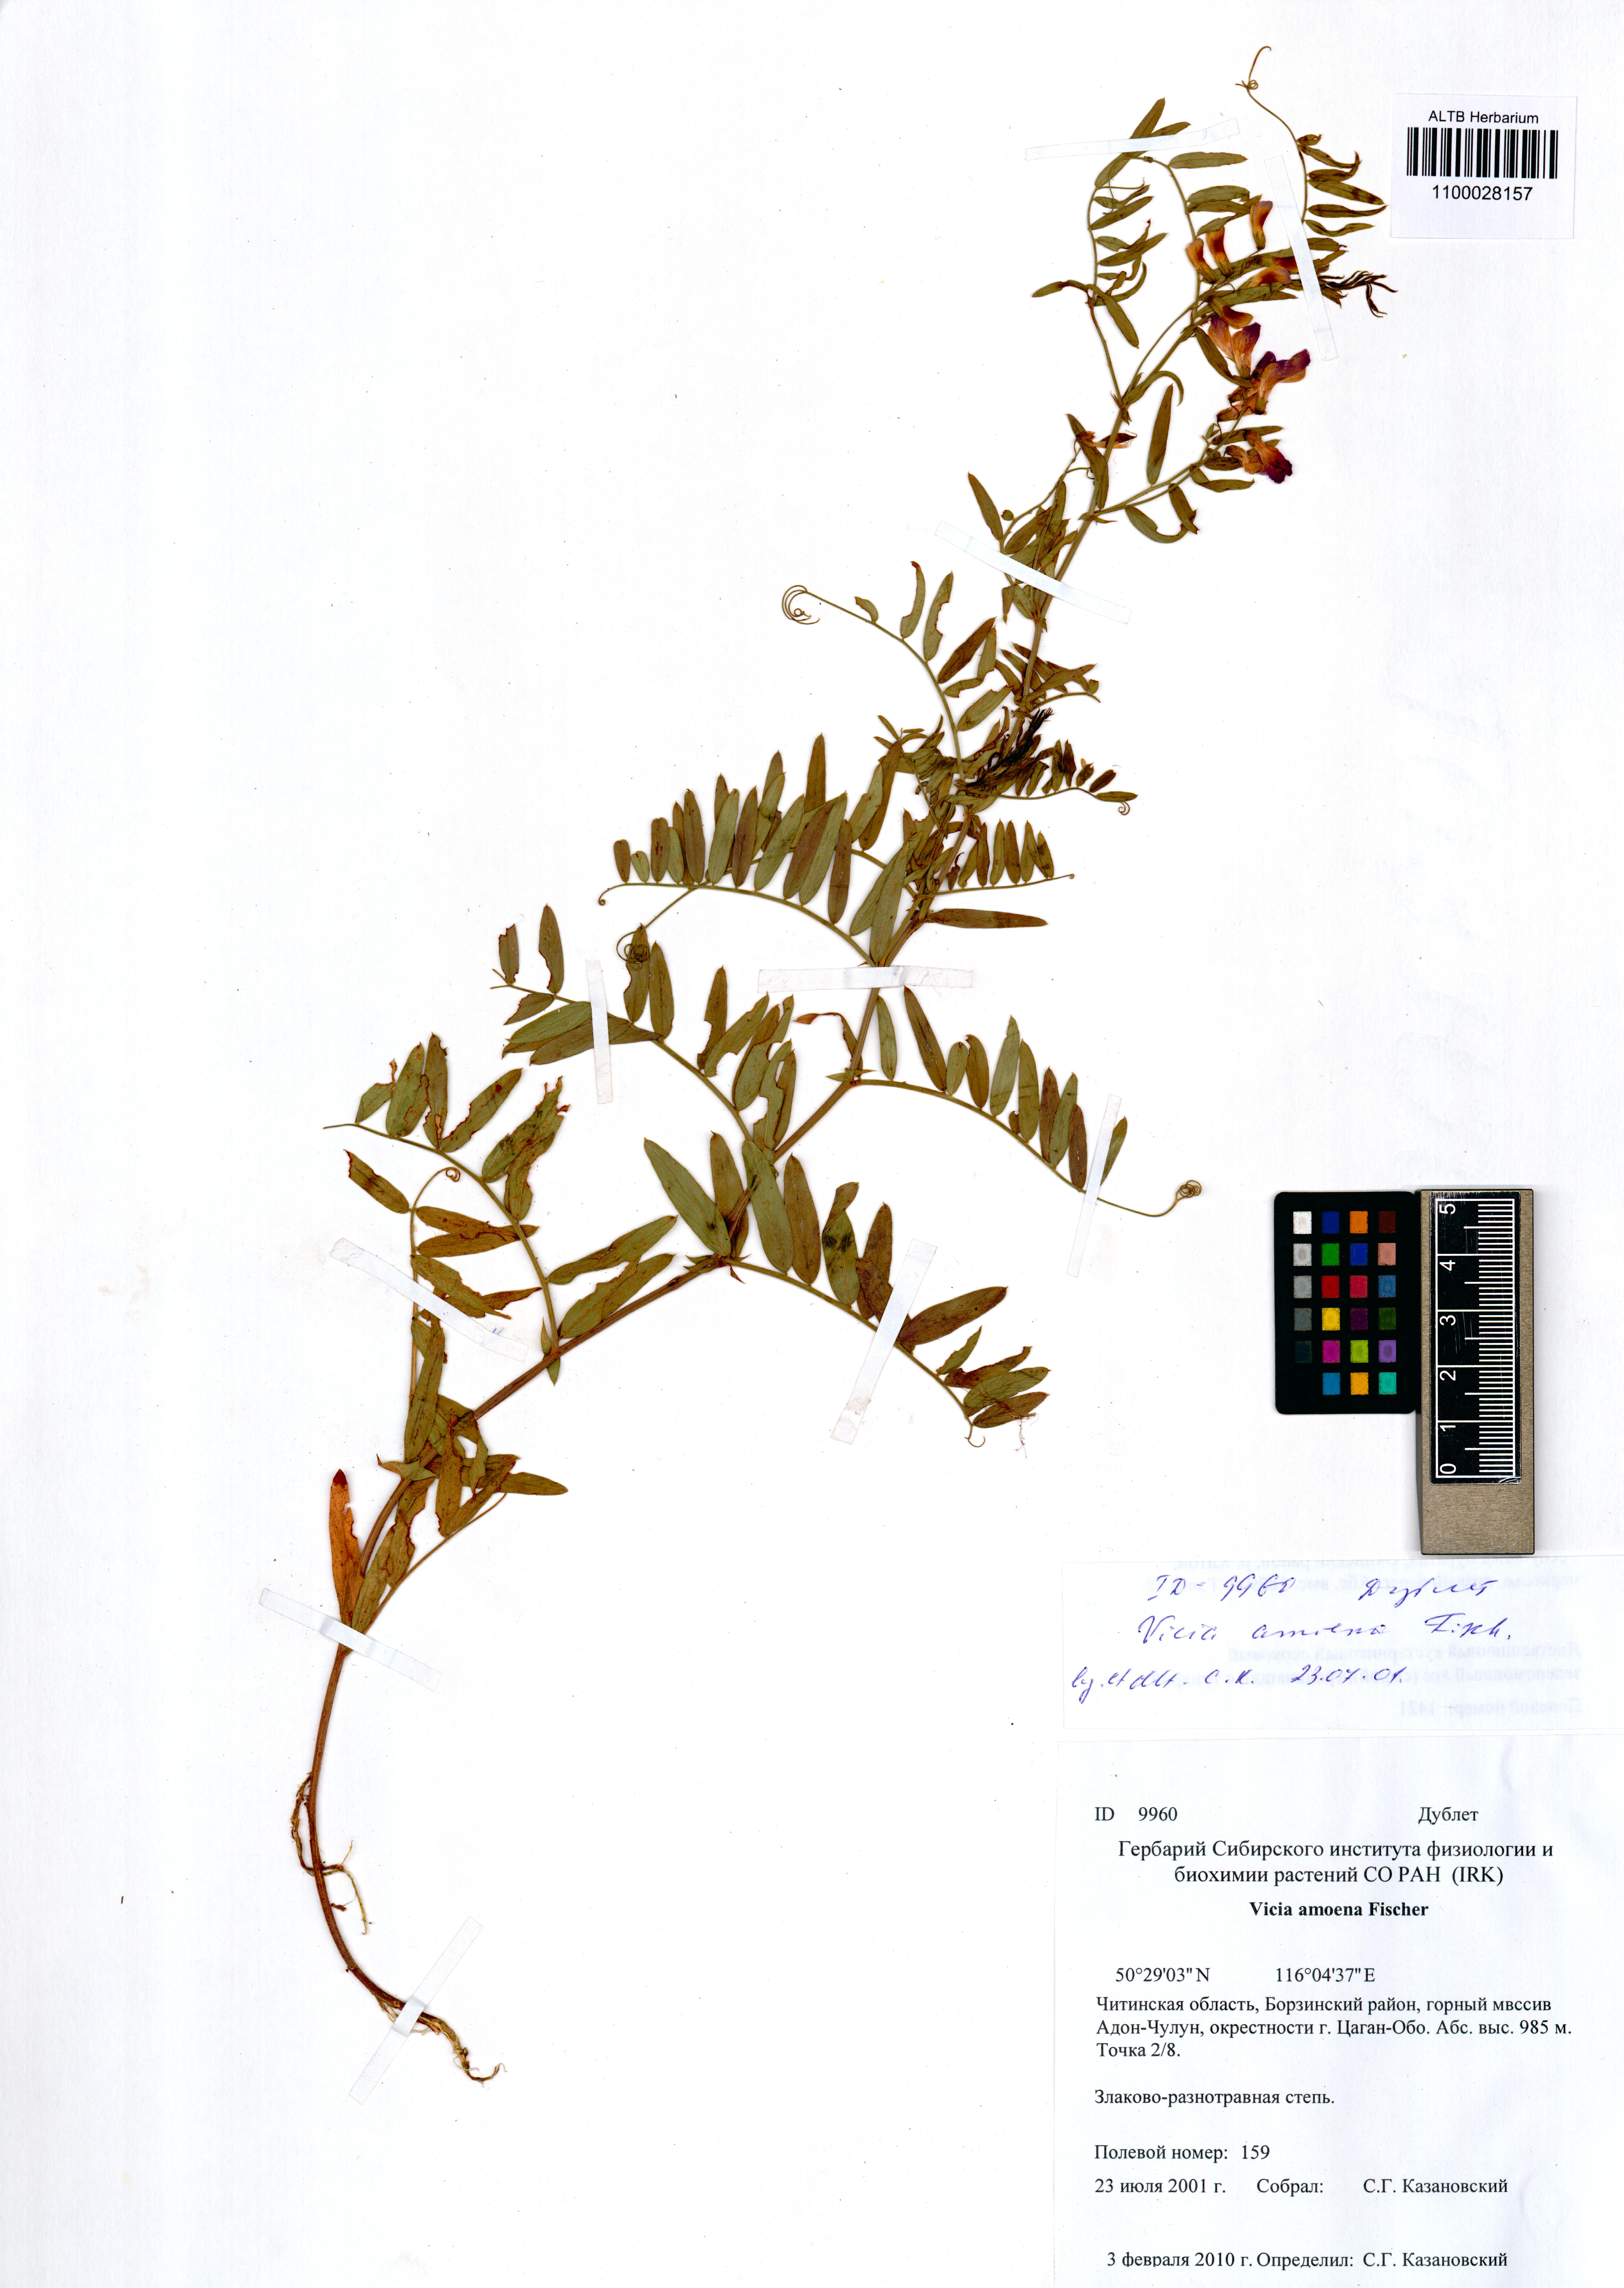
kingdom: Plantae
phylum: Tracheophyta
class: Magnoliopsida
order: Fabales
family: Fabaceae
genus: Vicia
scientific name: Vicia amoena
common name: Cheder ebs
